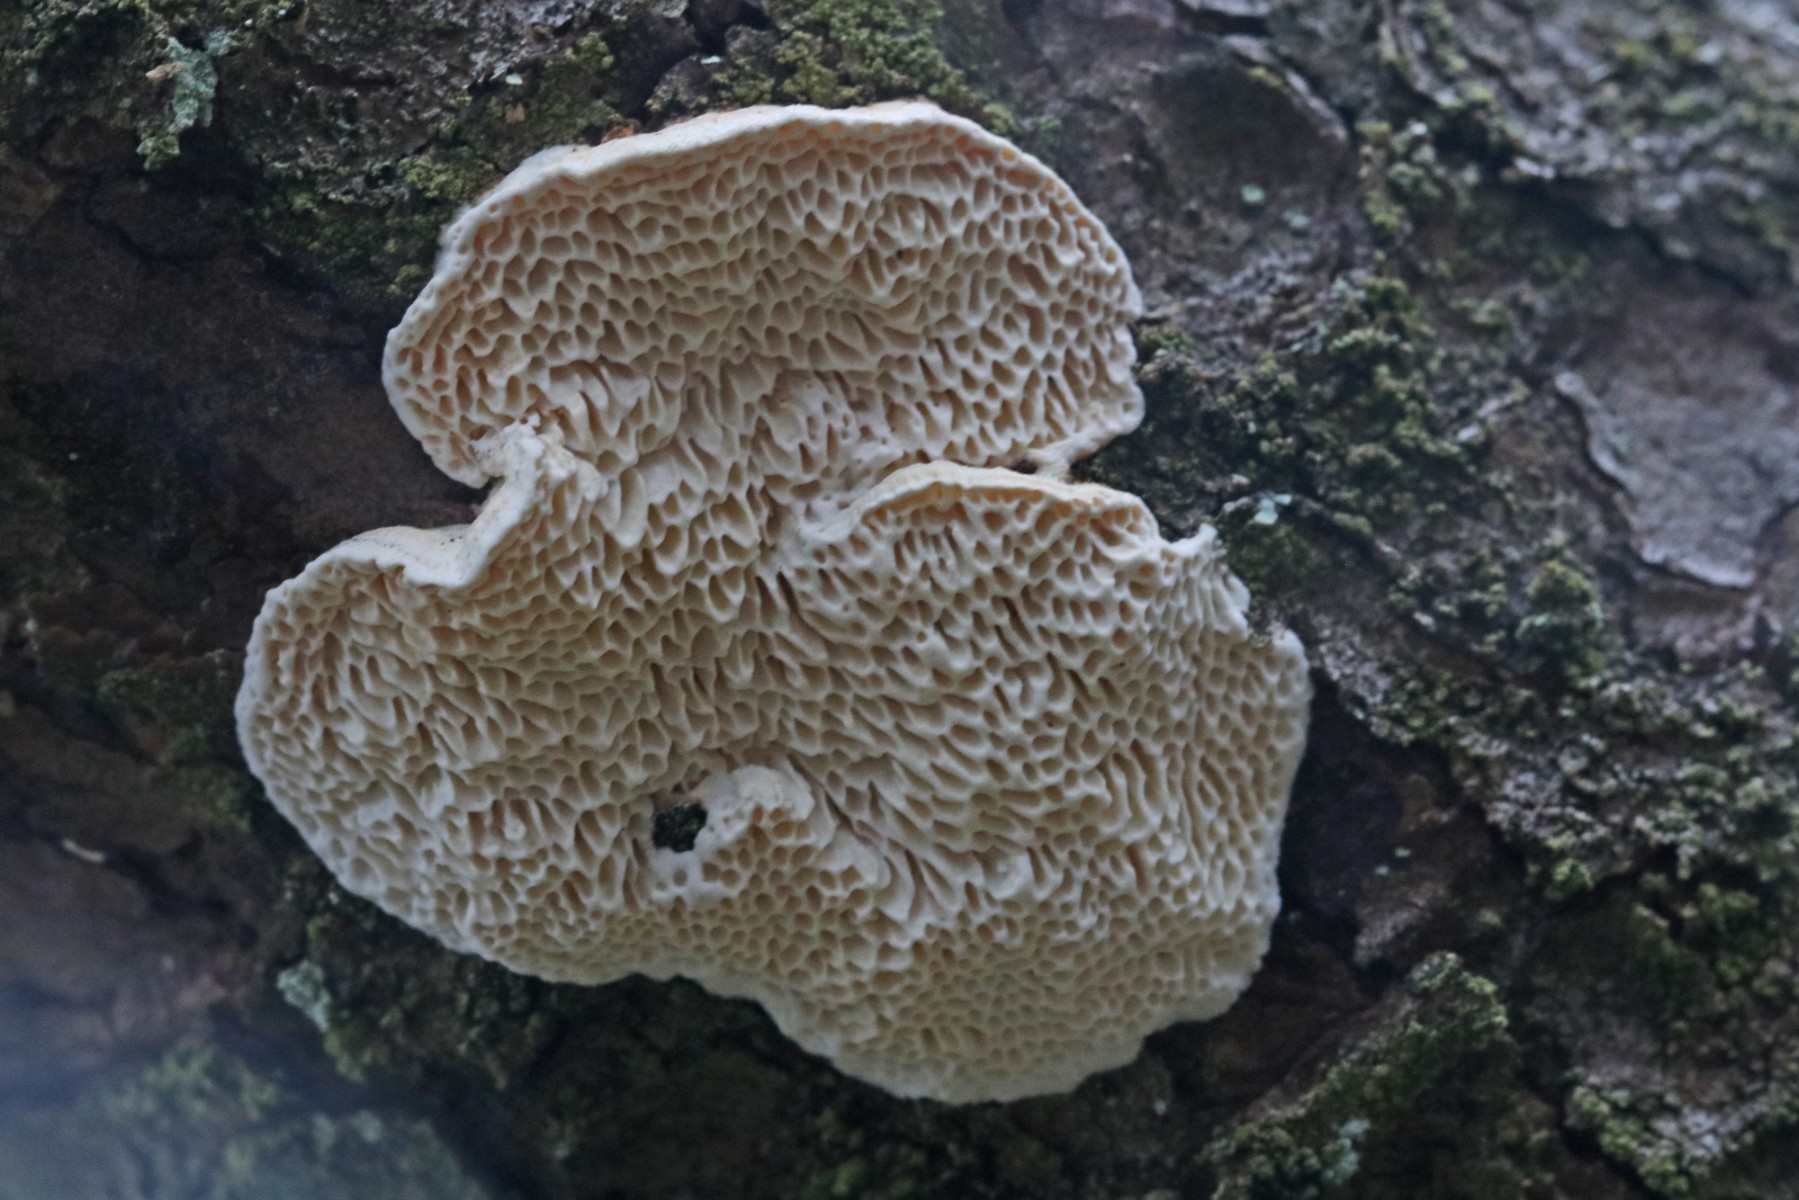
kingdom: Fungi
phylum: Basidiomycota
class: Agaricomycetes
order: Polyporales
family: Fomitopsidaceae
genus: Fomitopsis
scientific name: Fomitopsis
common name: fyrre-skiveporesvamp
